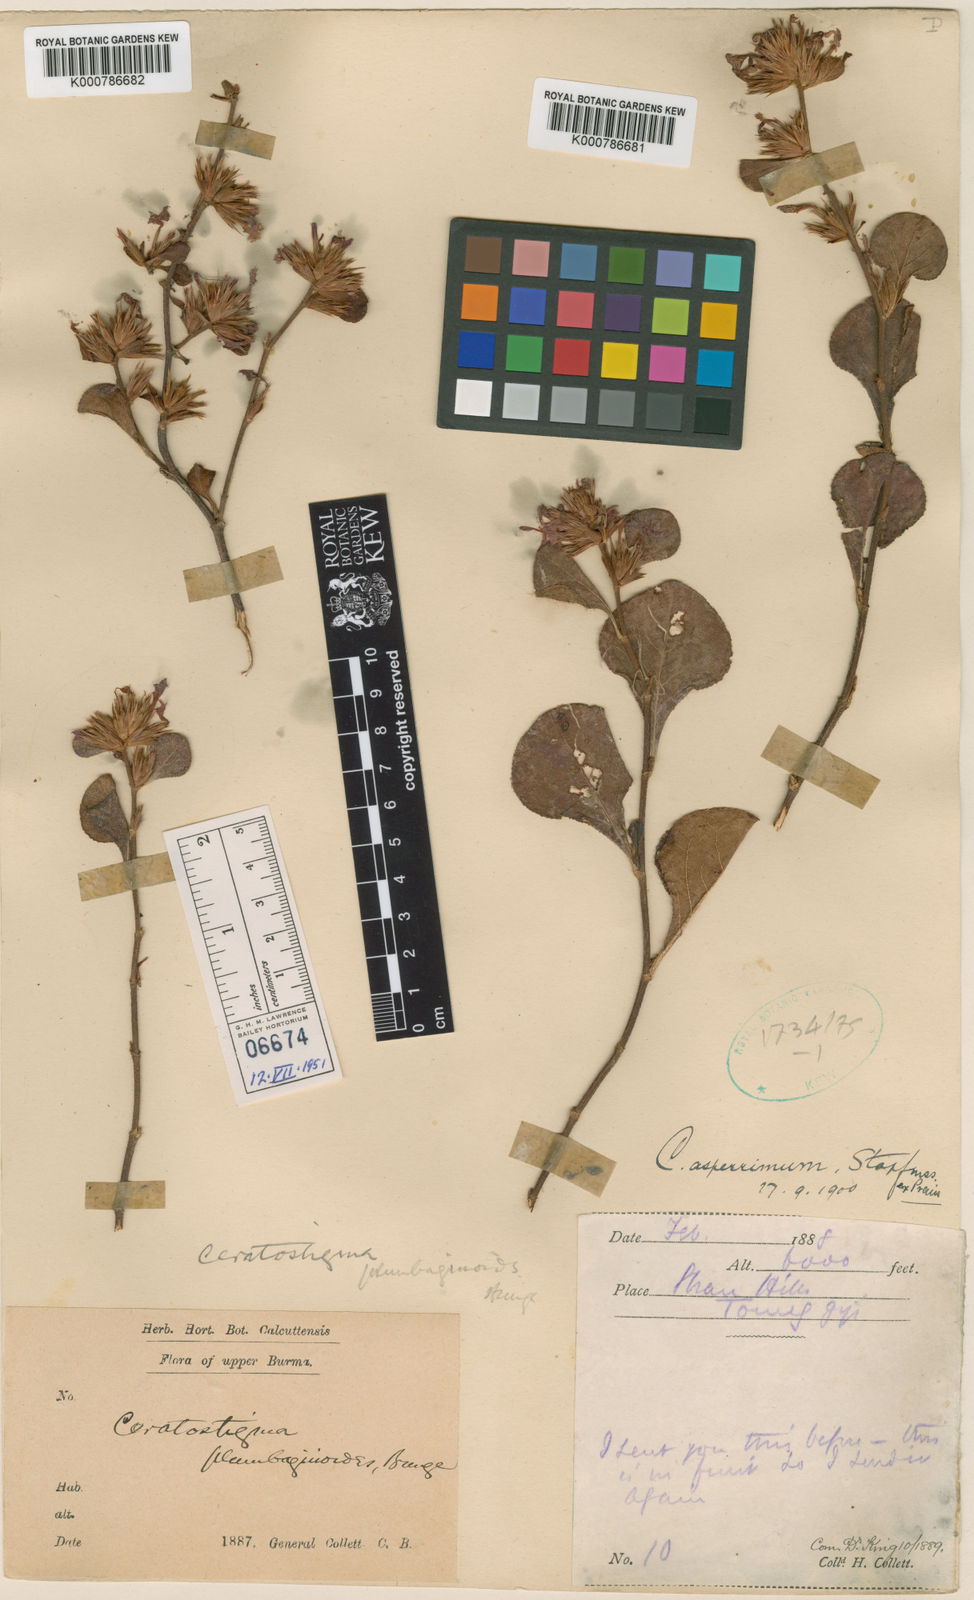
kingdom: Plantae
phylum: Tracheophyta
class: Magnoliopsida
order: Caryophyllales
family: Plumbaginaceae
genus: Ceratostigma
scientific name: Ceratostigma asperrimum
